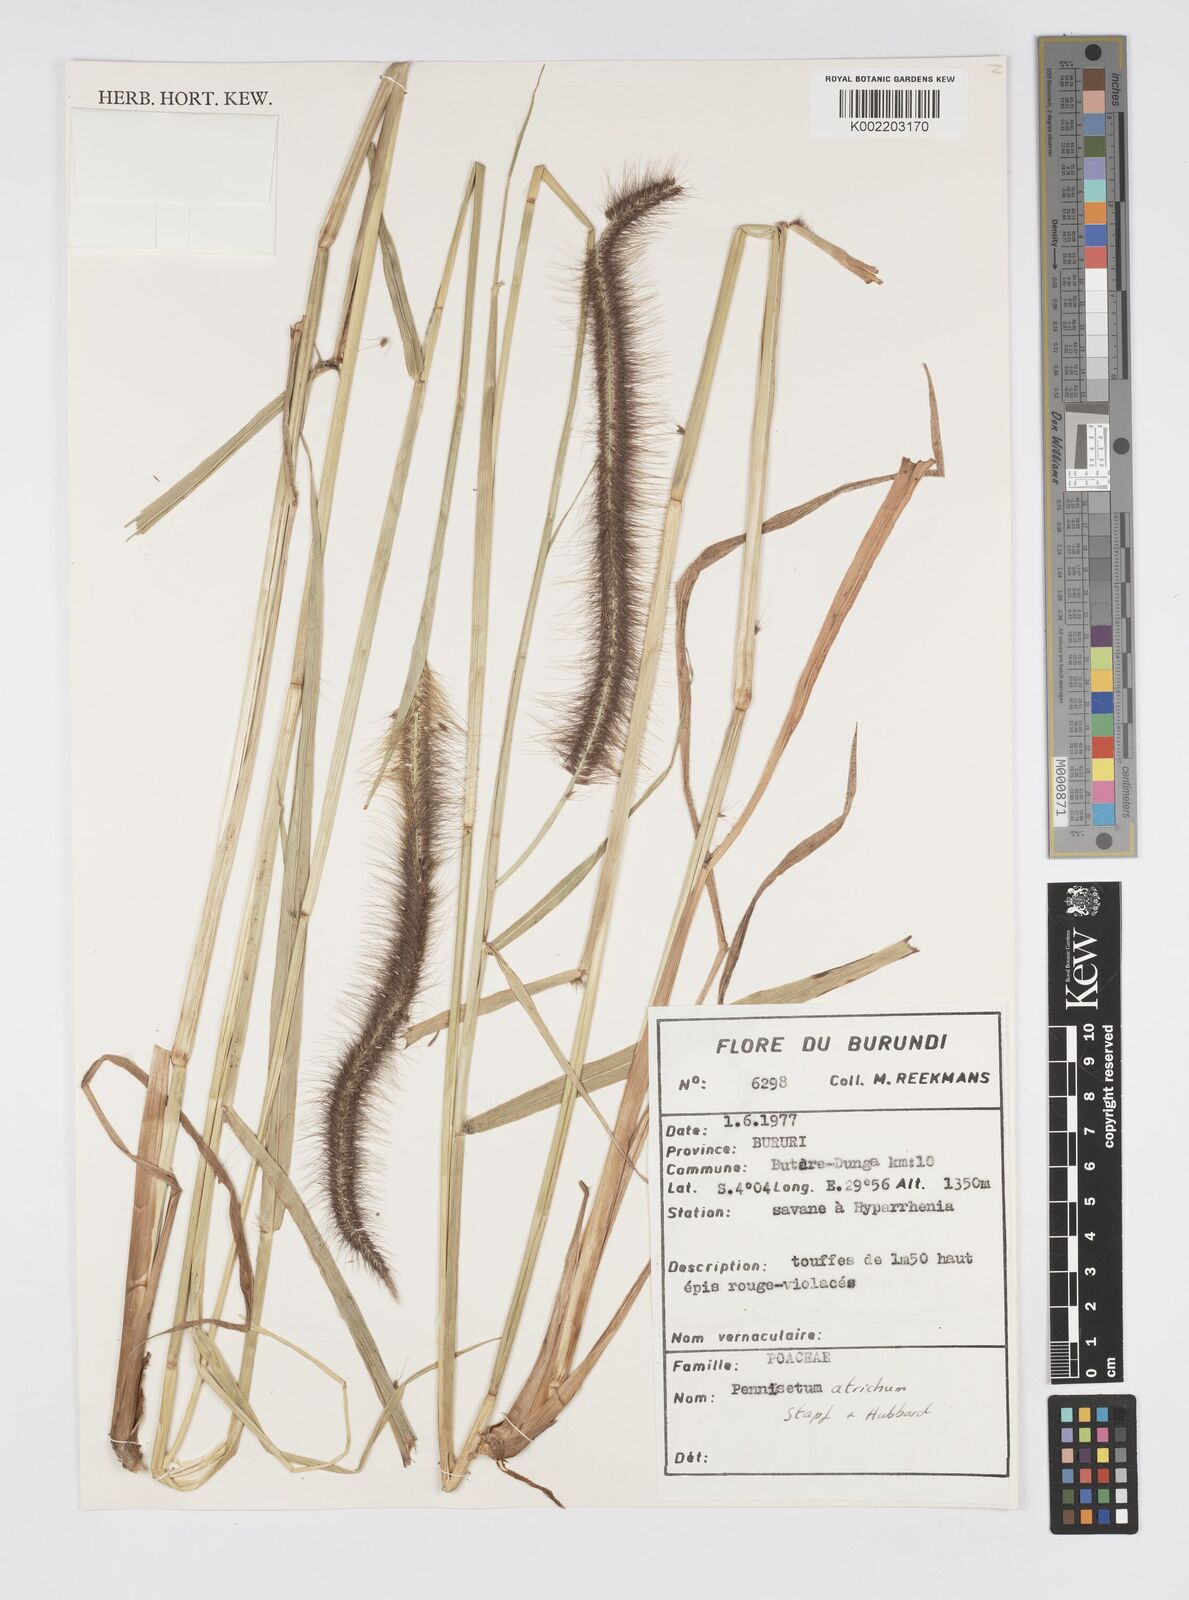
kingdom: Plantae
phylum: Tracheophyta
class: Liliopsida
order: Poales
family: Poaceae
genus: Cenchrus
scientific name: Cenchrus setosus
